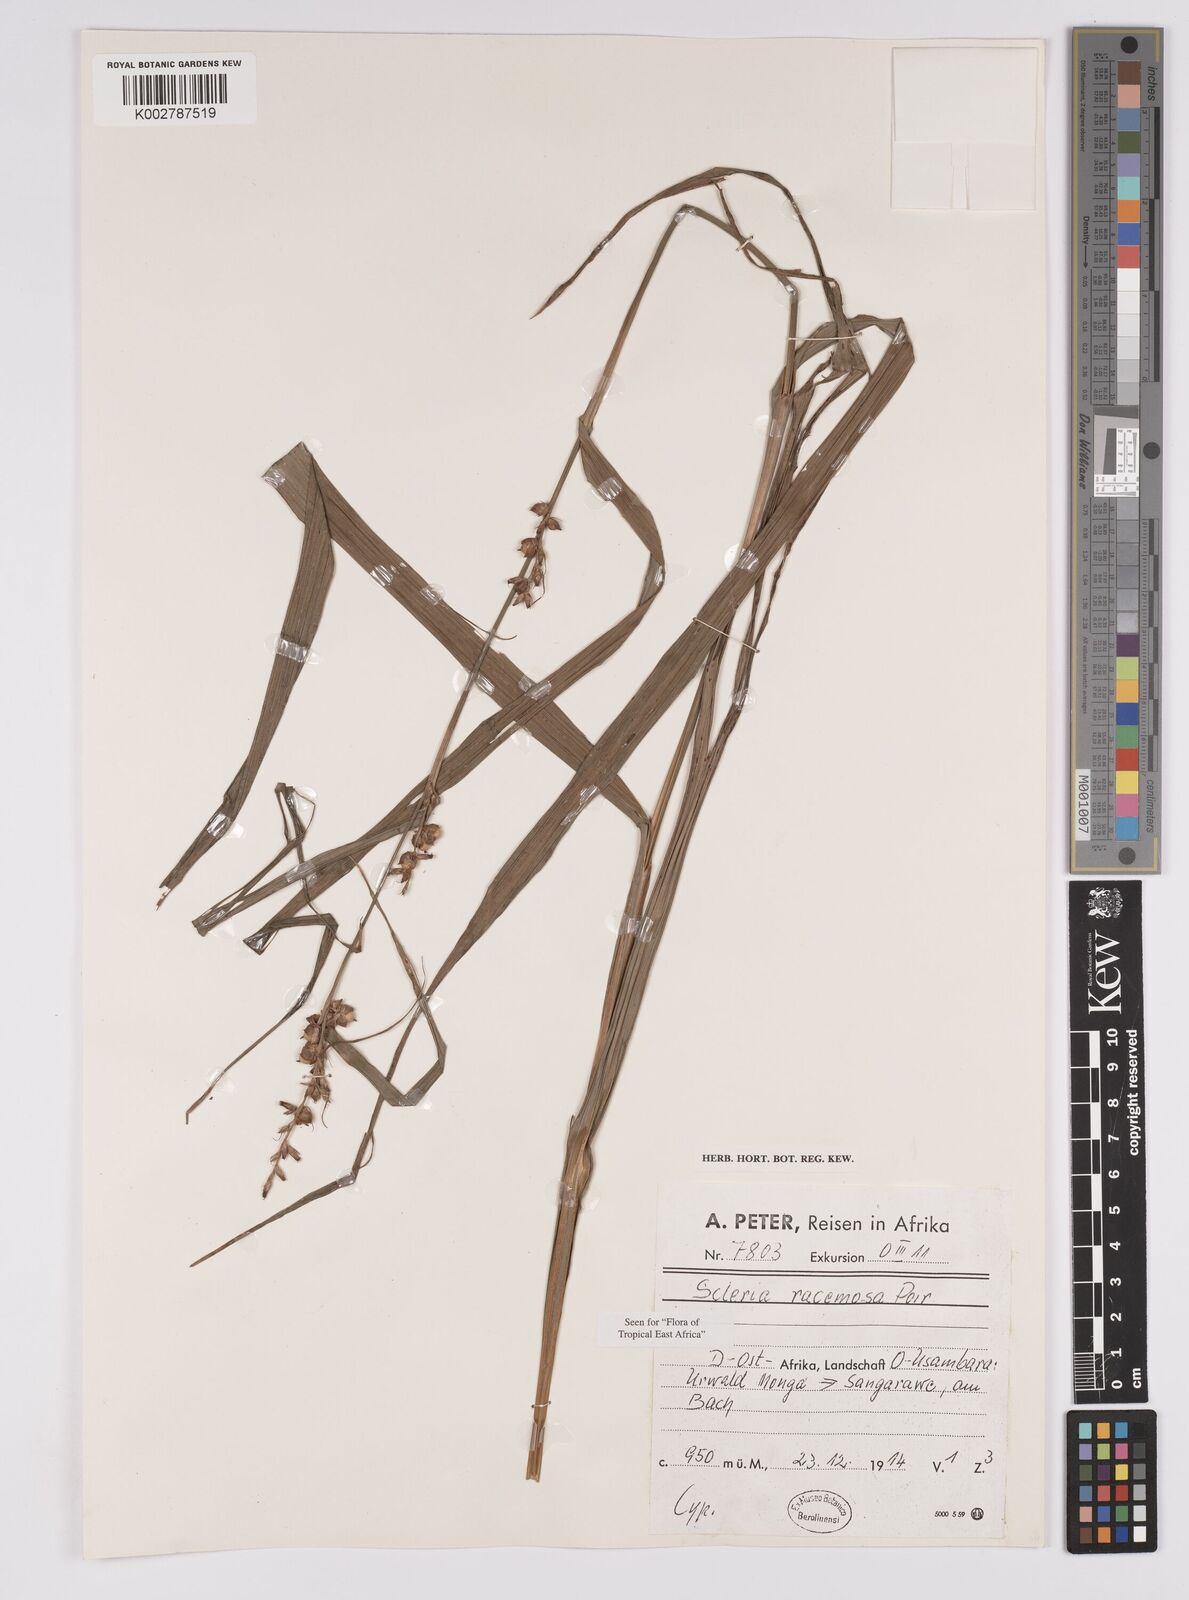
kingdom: Plantae
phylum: Tracheophyta
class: Liliopsida
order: Poales
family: Cyperaceae
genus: Scleria
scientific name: Scleria racemosa
